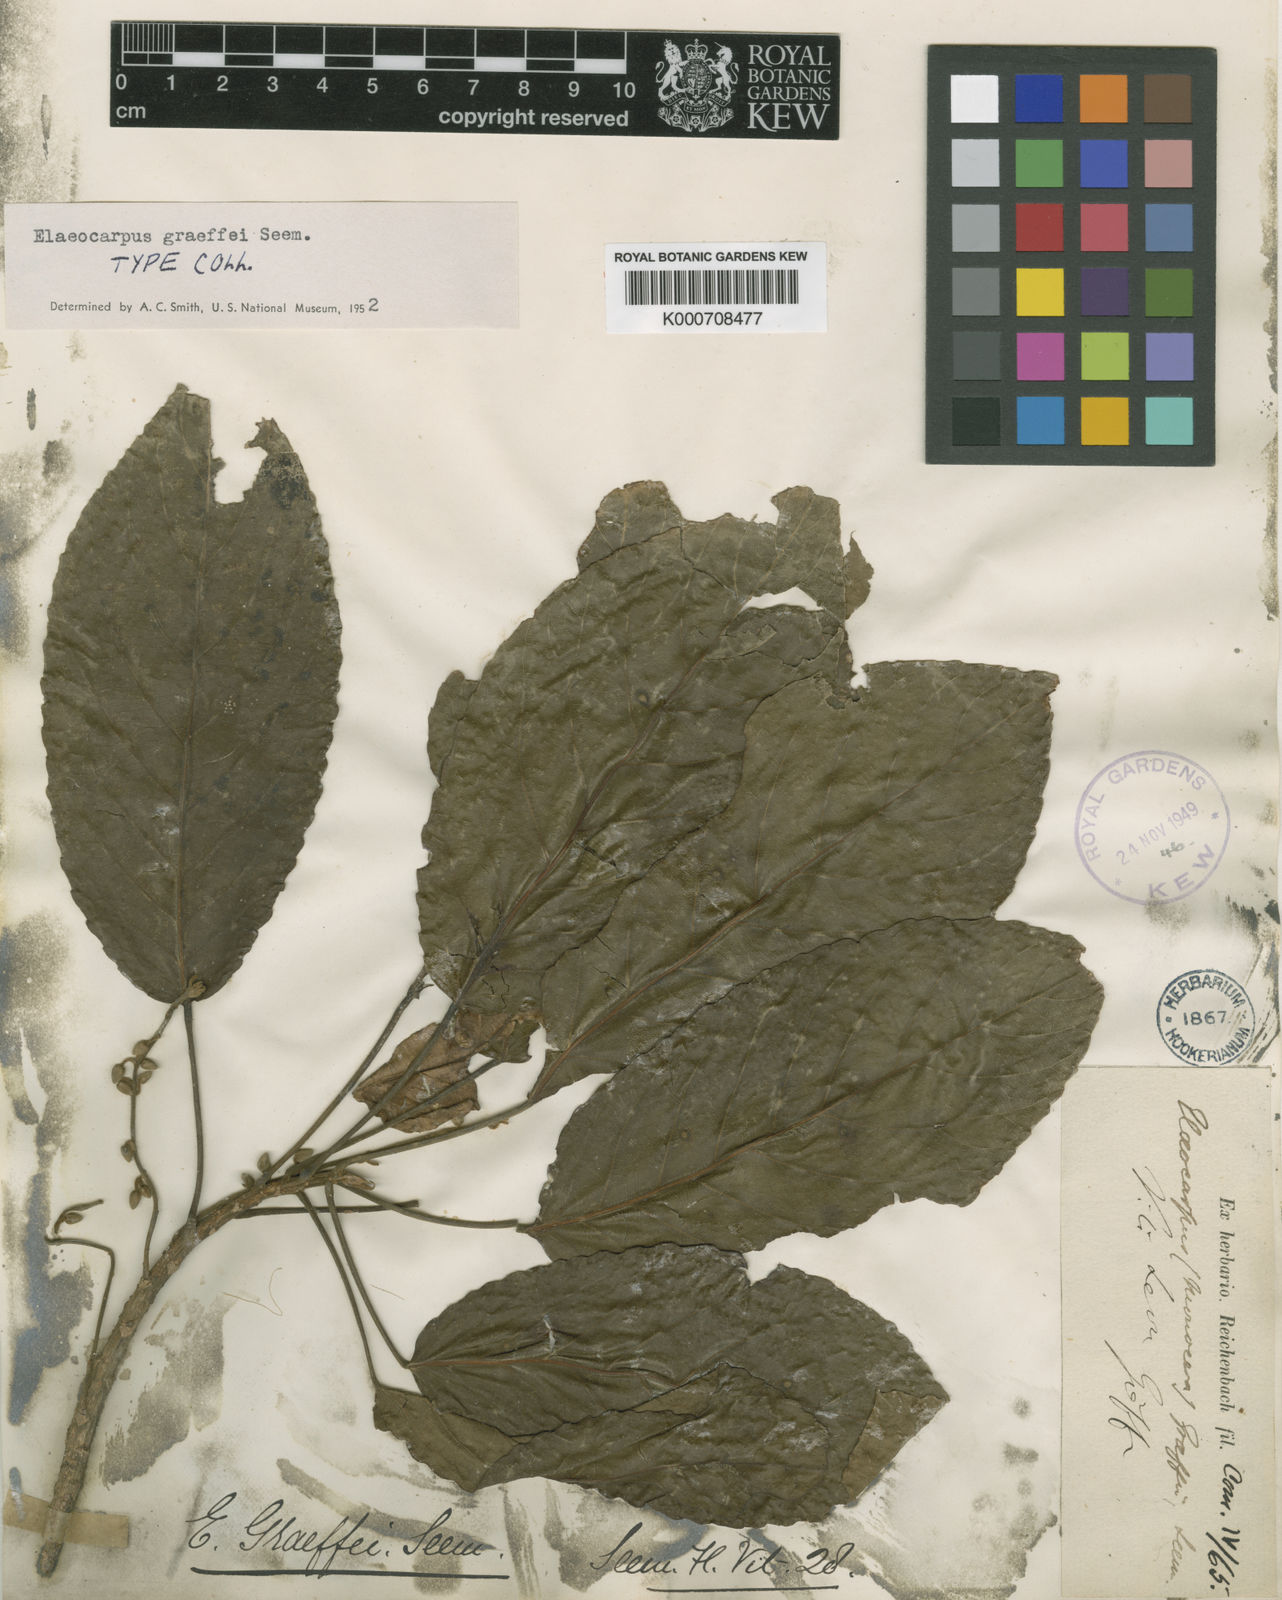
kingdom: Plantae
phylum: Tracheophyta
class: Magnoliopsida
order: Oxalidales
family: Elaeocarpaceae
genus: Elaeocarpus
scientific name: Elaeocarpus graeffei
